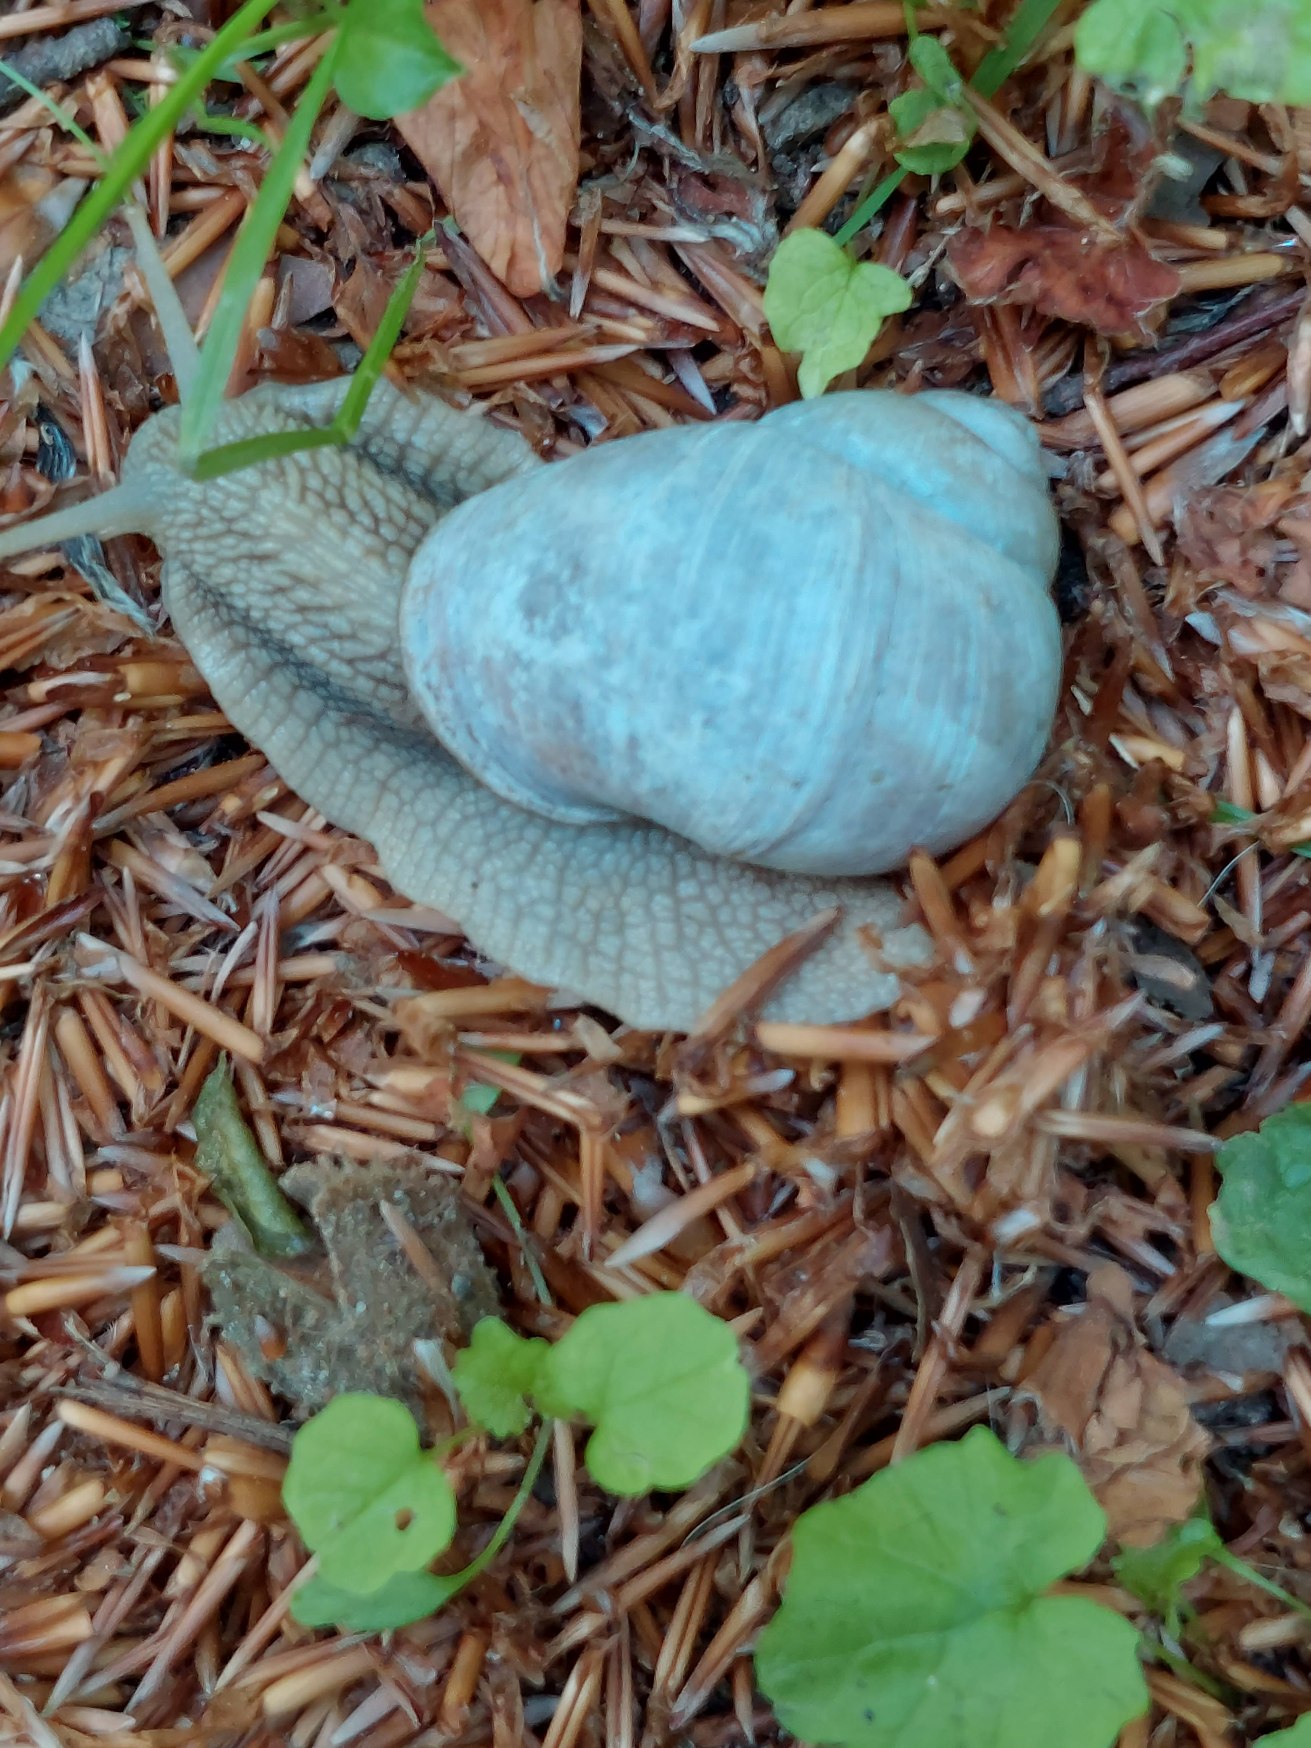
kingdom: Animalia
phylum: Mollusca
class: Gastropoda
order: Stylommatophora
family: Helicidae
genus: Helix
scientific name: Helix pomatia
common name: Vinbjergsnegl
